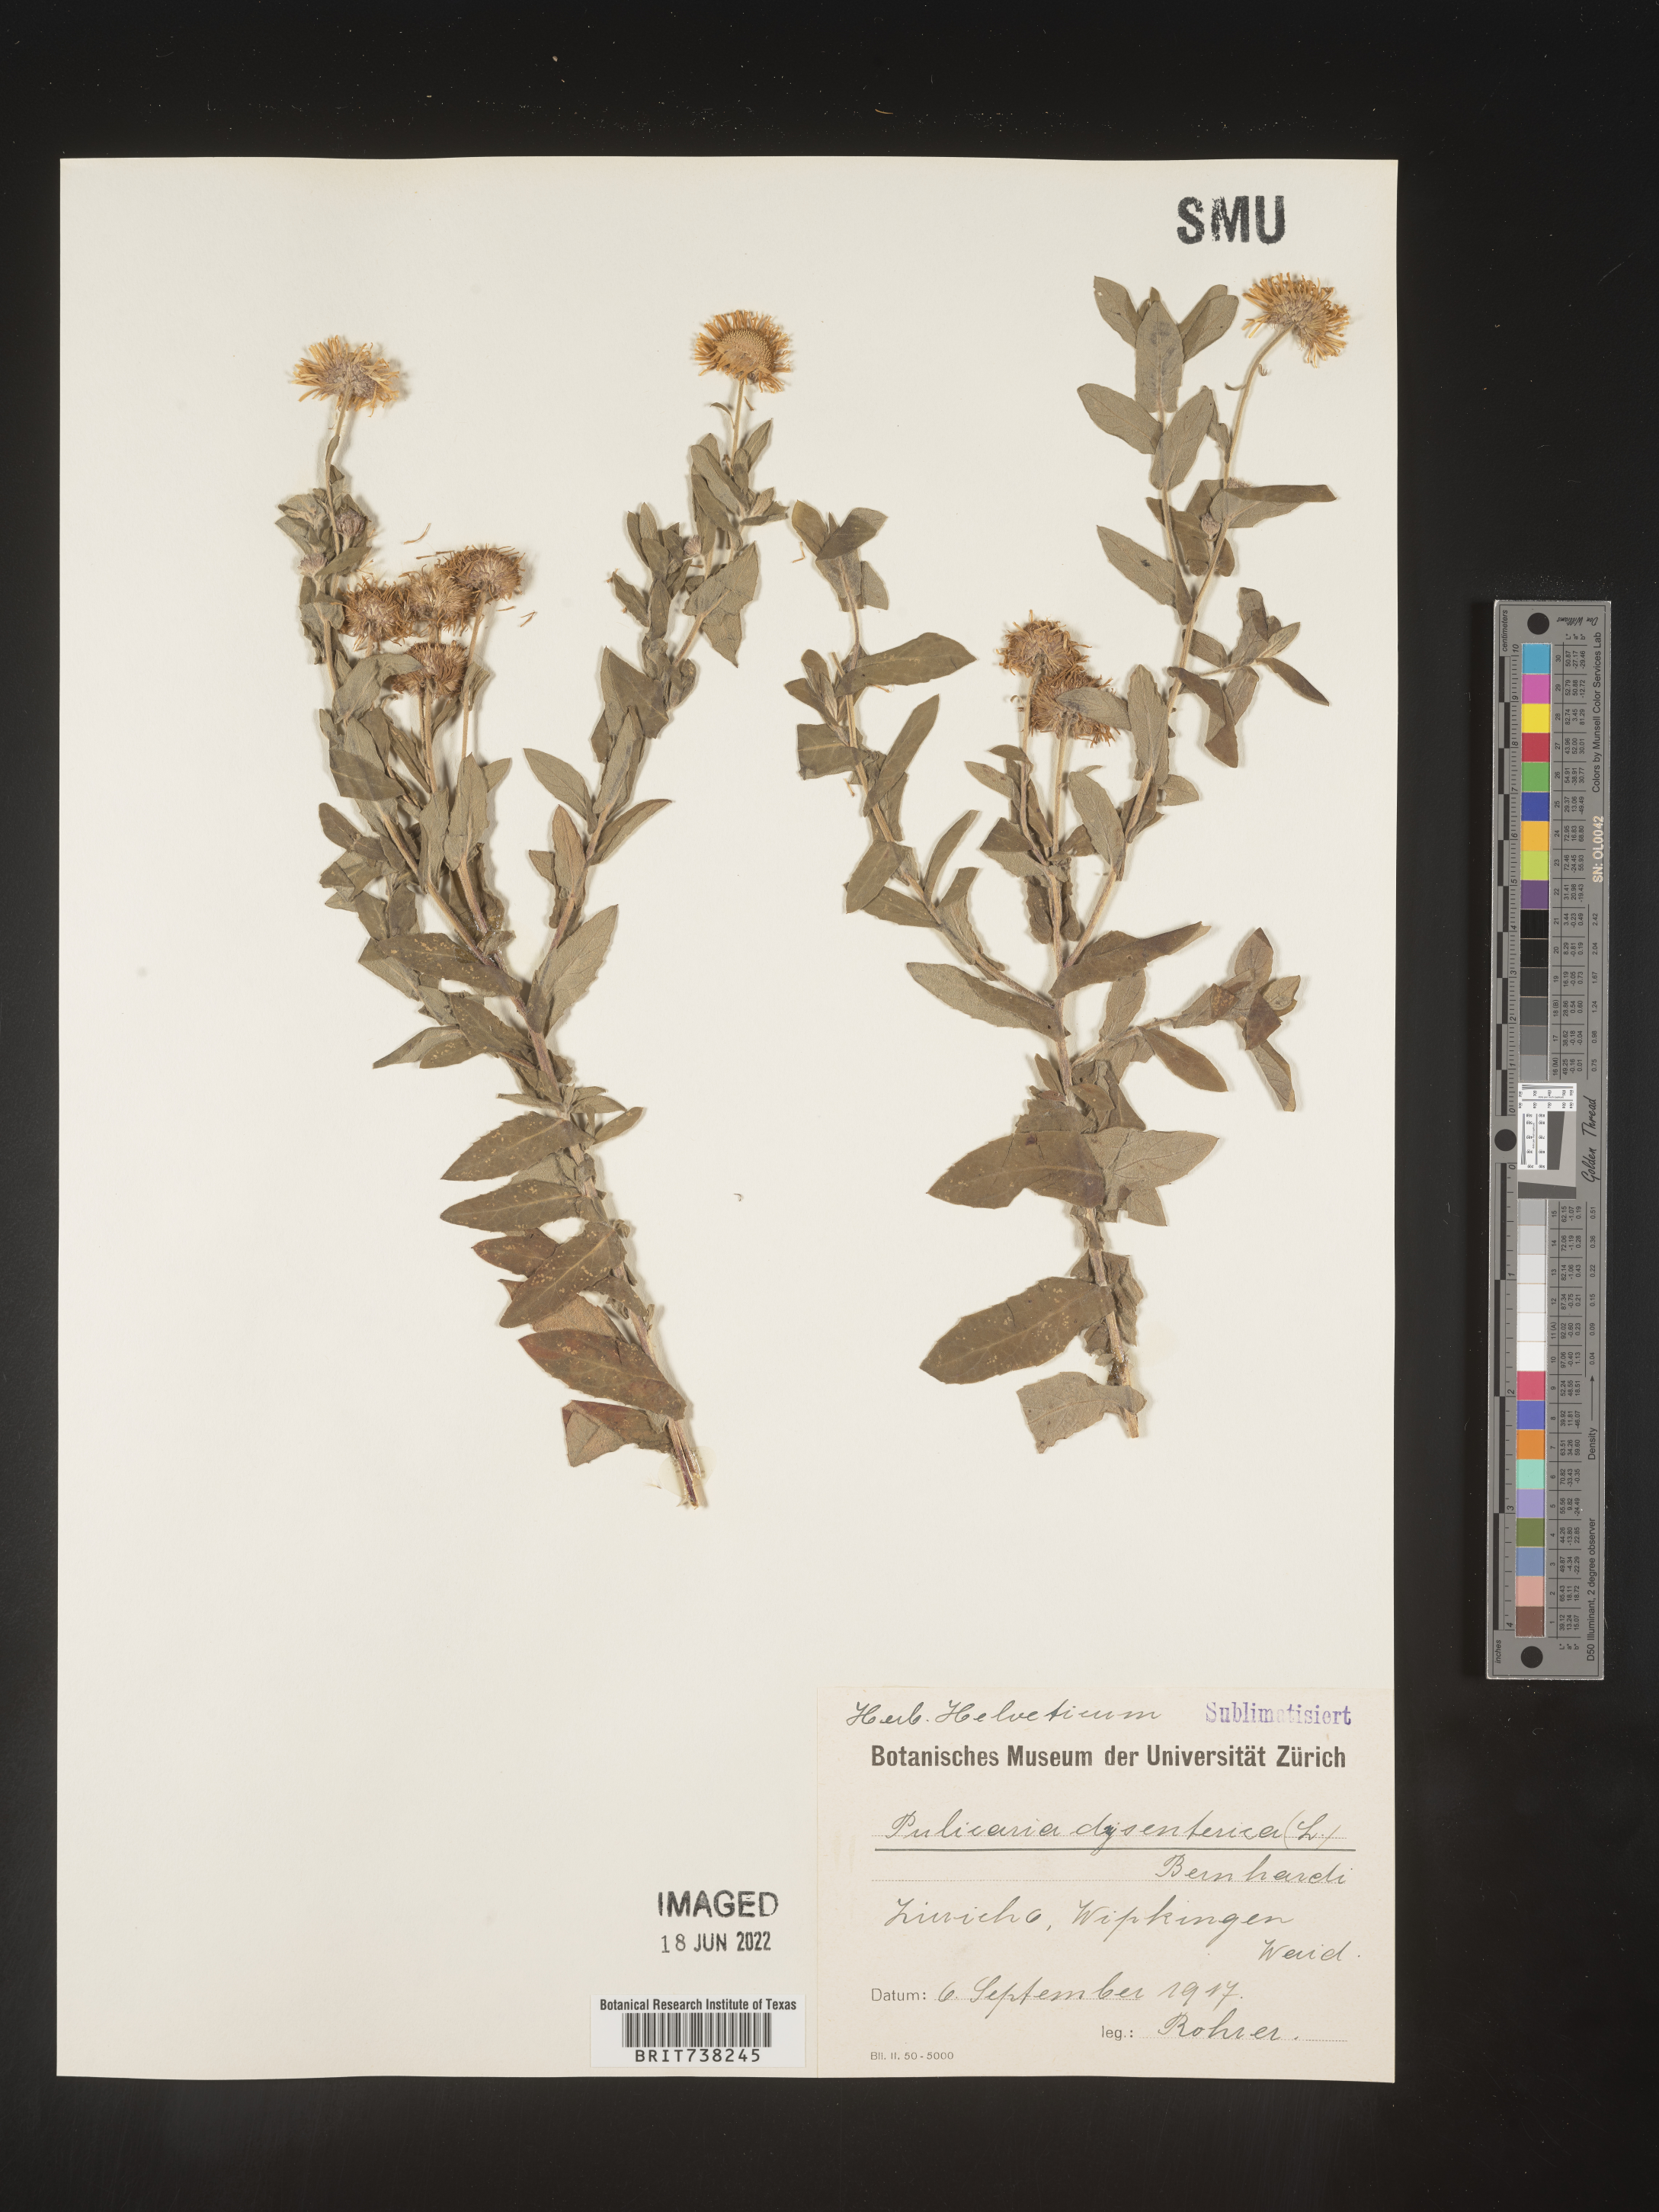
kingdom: Plantae
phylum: Tracheophyta
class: Magnoliopsida
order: Asterales
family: Asteraceae
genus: Pulicaria
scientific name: Pulicaria
